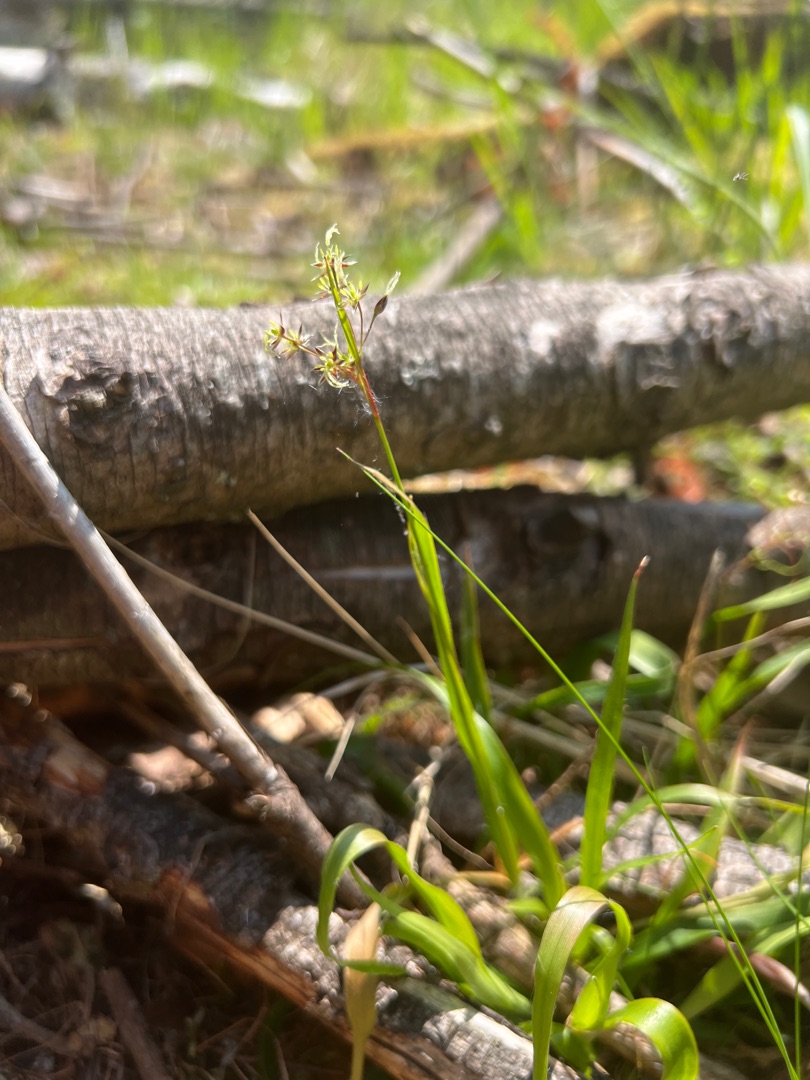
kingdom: Plantae
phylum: Tracheophyta
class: Liliopsida
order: Poales
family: Juncaceae
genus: Luzula
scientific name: Luzula pilosa
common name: Håret frytle
